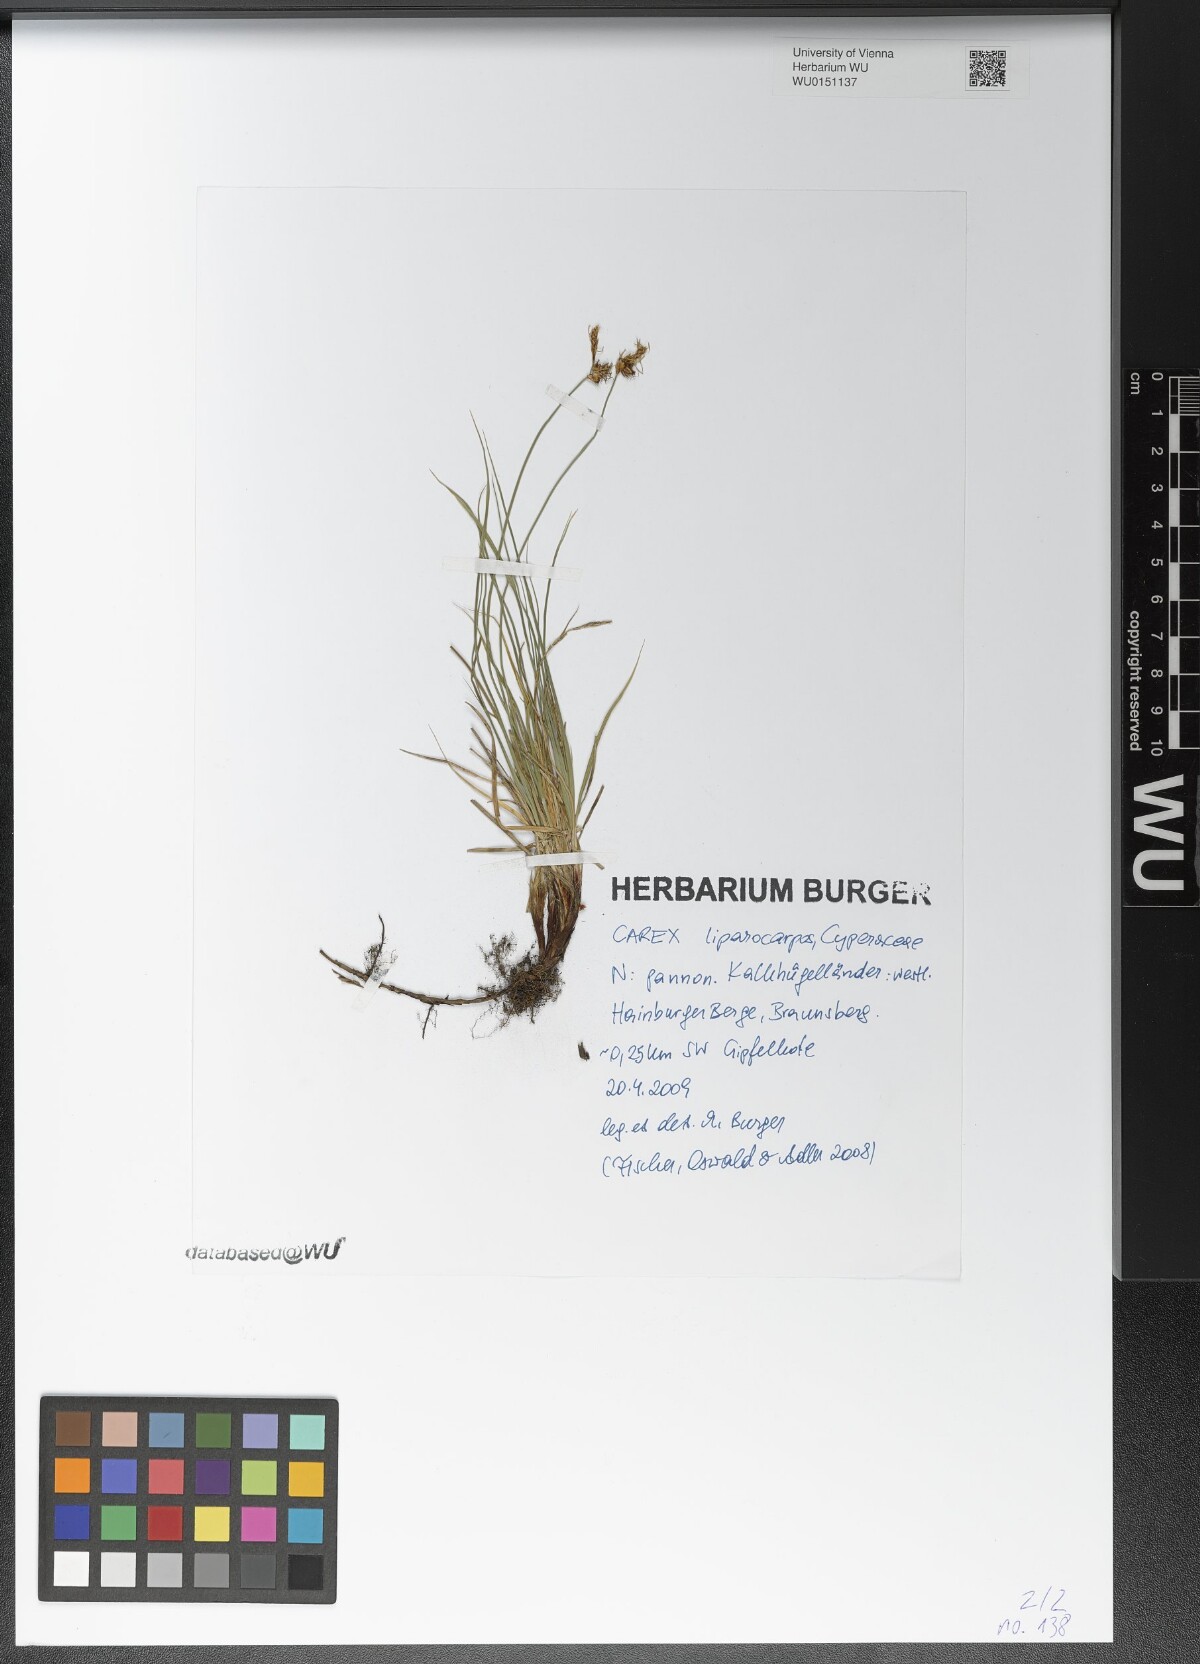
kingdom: Plantae
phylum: Tracheophyta
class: Liliopsida
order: Poales
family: Cyperaceae
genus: Carex
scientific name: Carex liparocarpos
